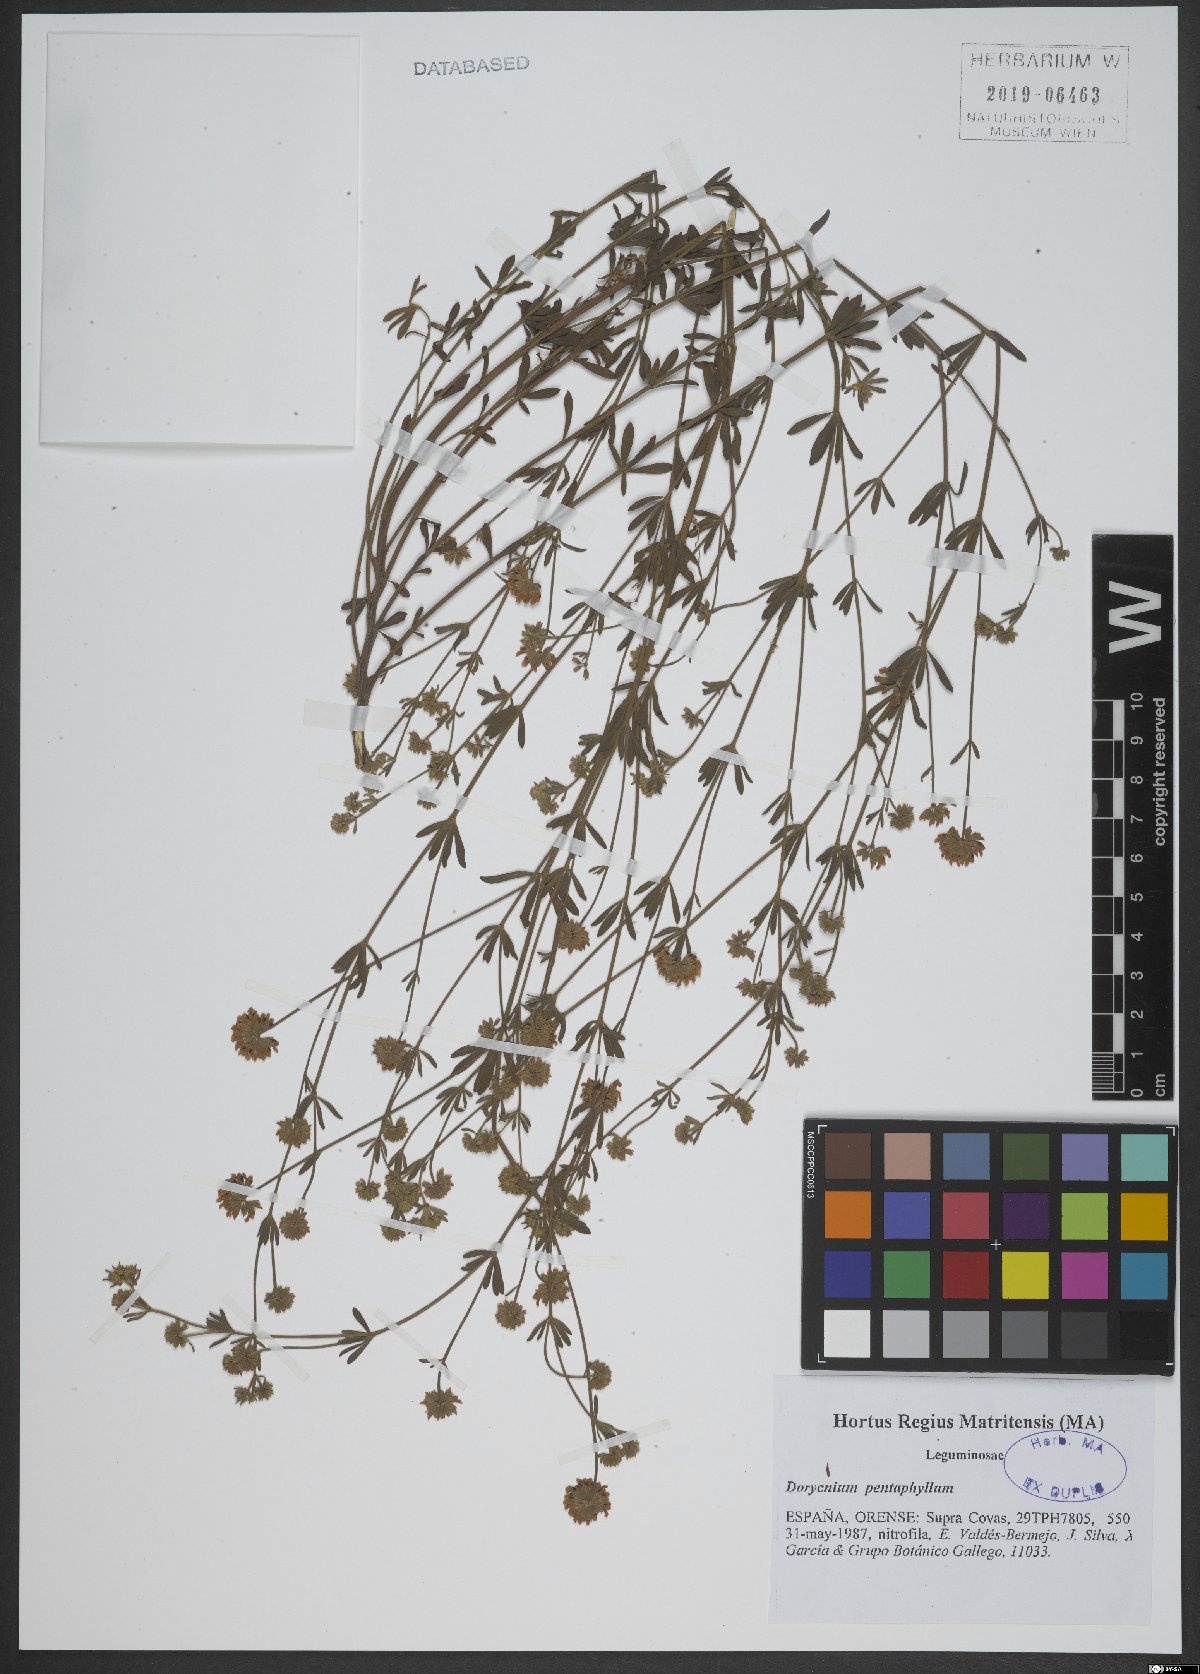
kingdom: Plantae
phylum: Tracheophyta
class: Magnoliopsida
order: Fabales
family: Fabaceae
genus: Lotus
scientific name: Lotus dorycnium
